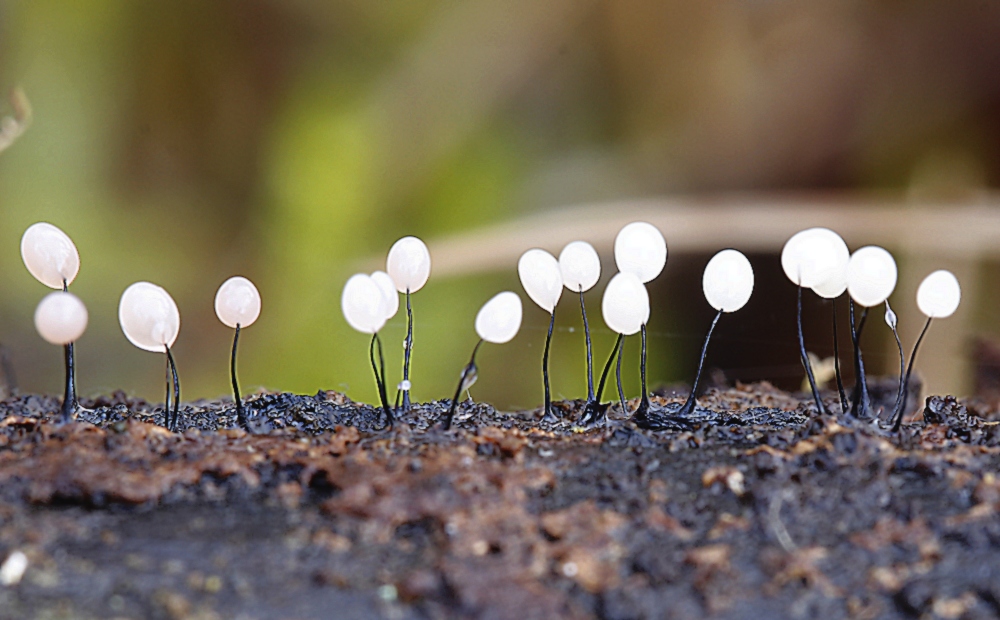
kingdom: Protozoa
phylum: Mycetozoa
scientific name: Mycetozoa
